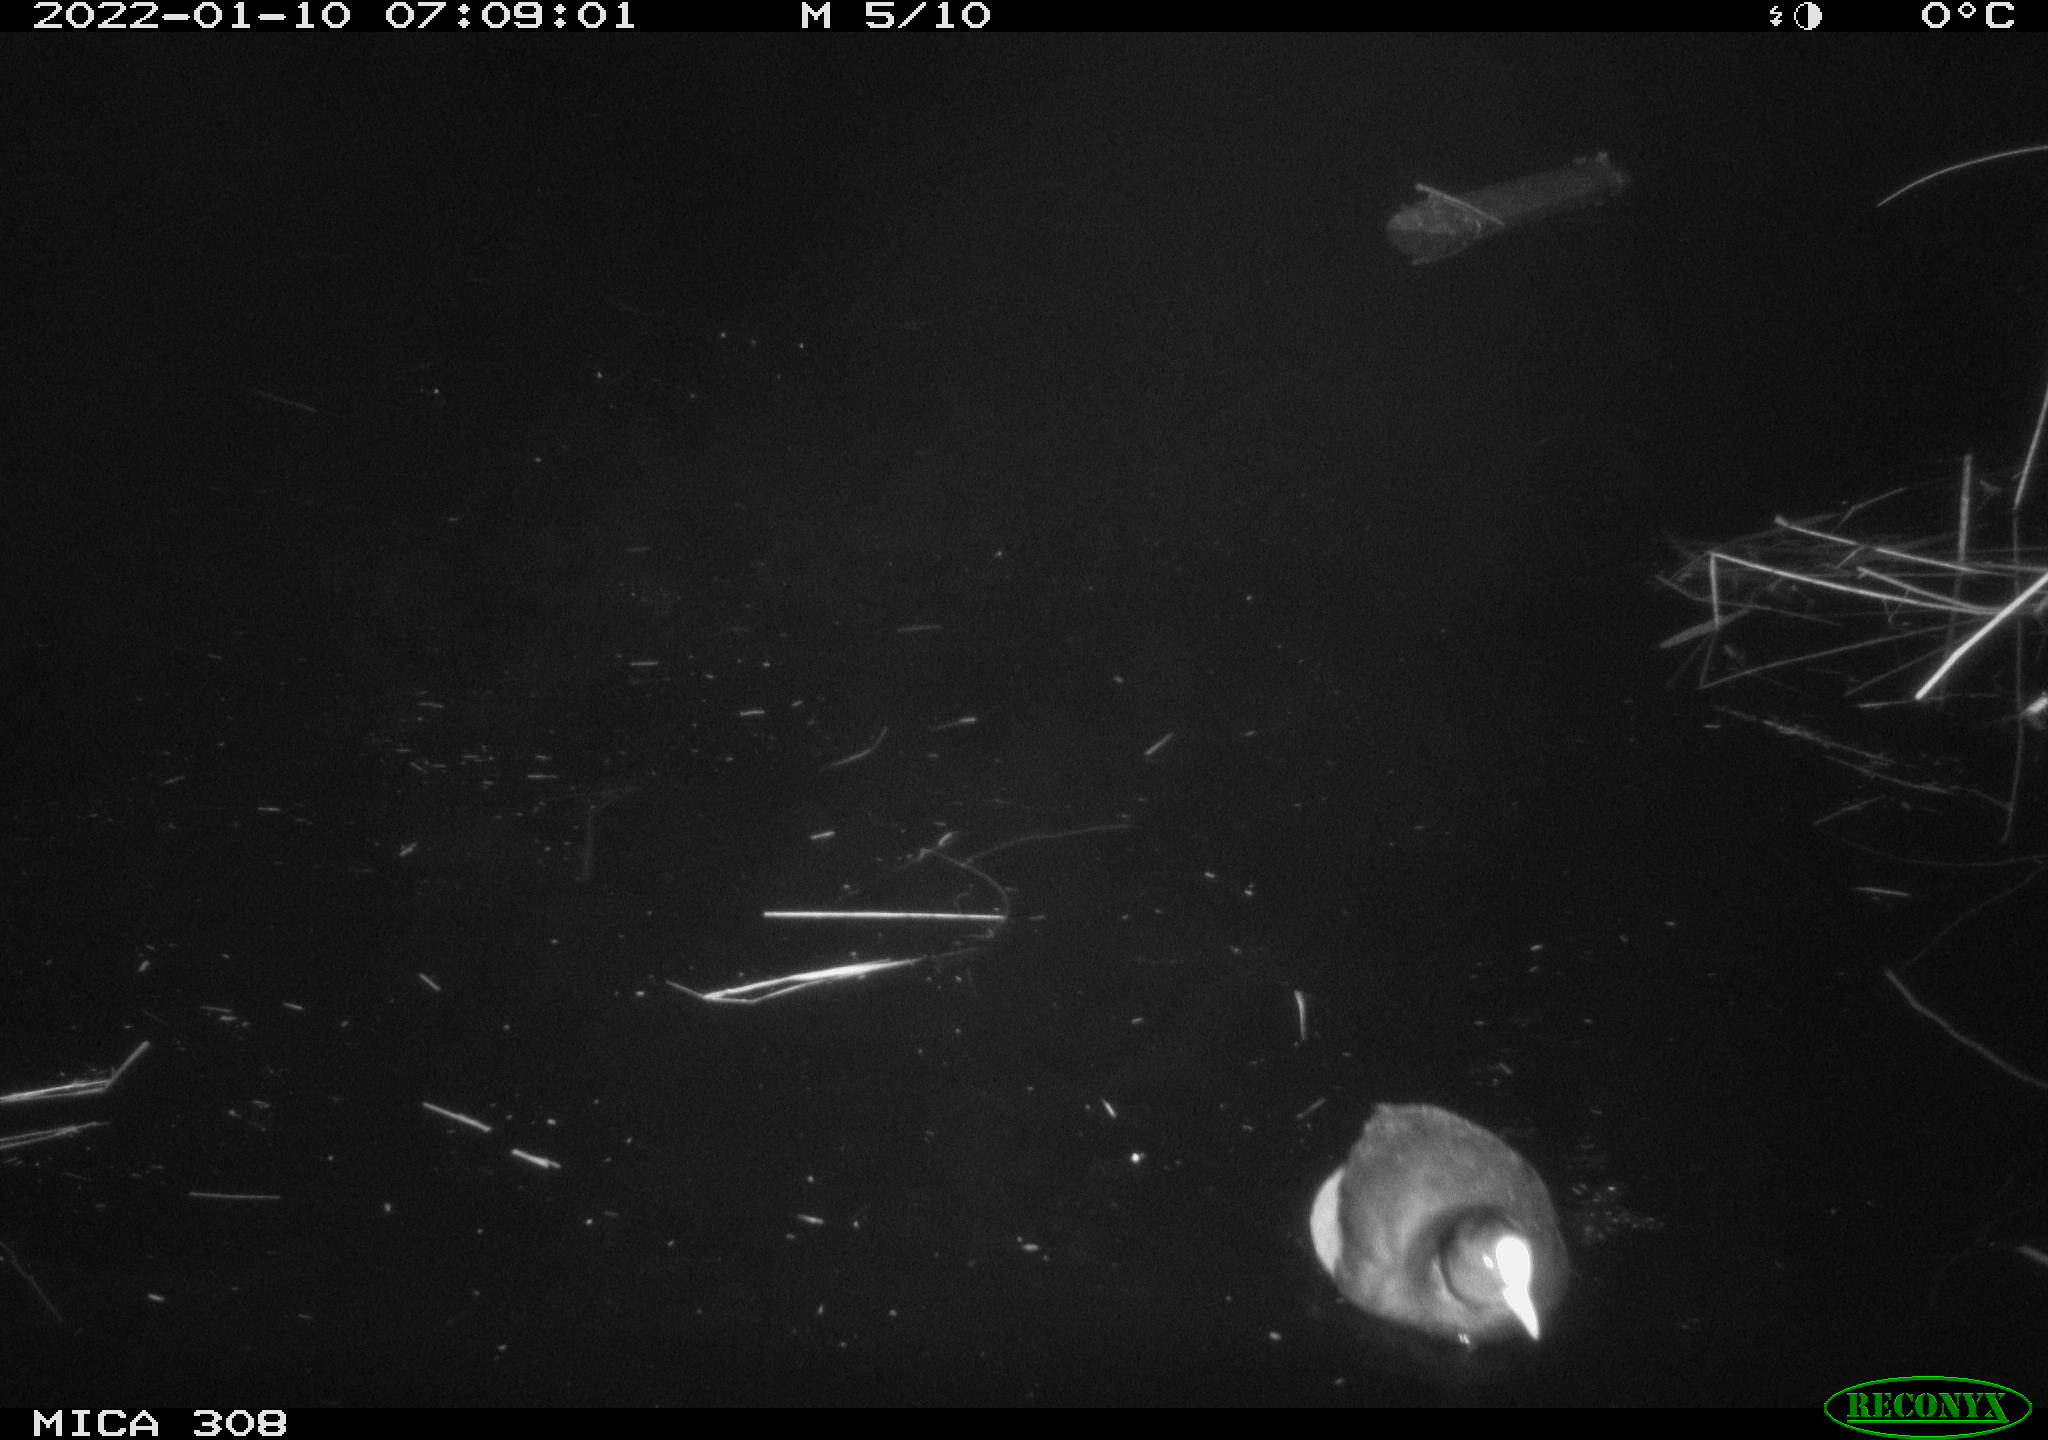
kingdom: Animalia
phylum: Chordata
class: Aves
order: Gruiformes
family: Rallidae
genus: Fulica
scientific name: Fulica atra
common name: Eurasian coot
